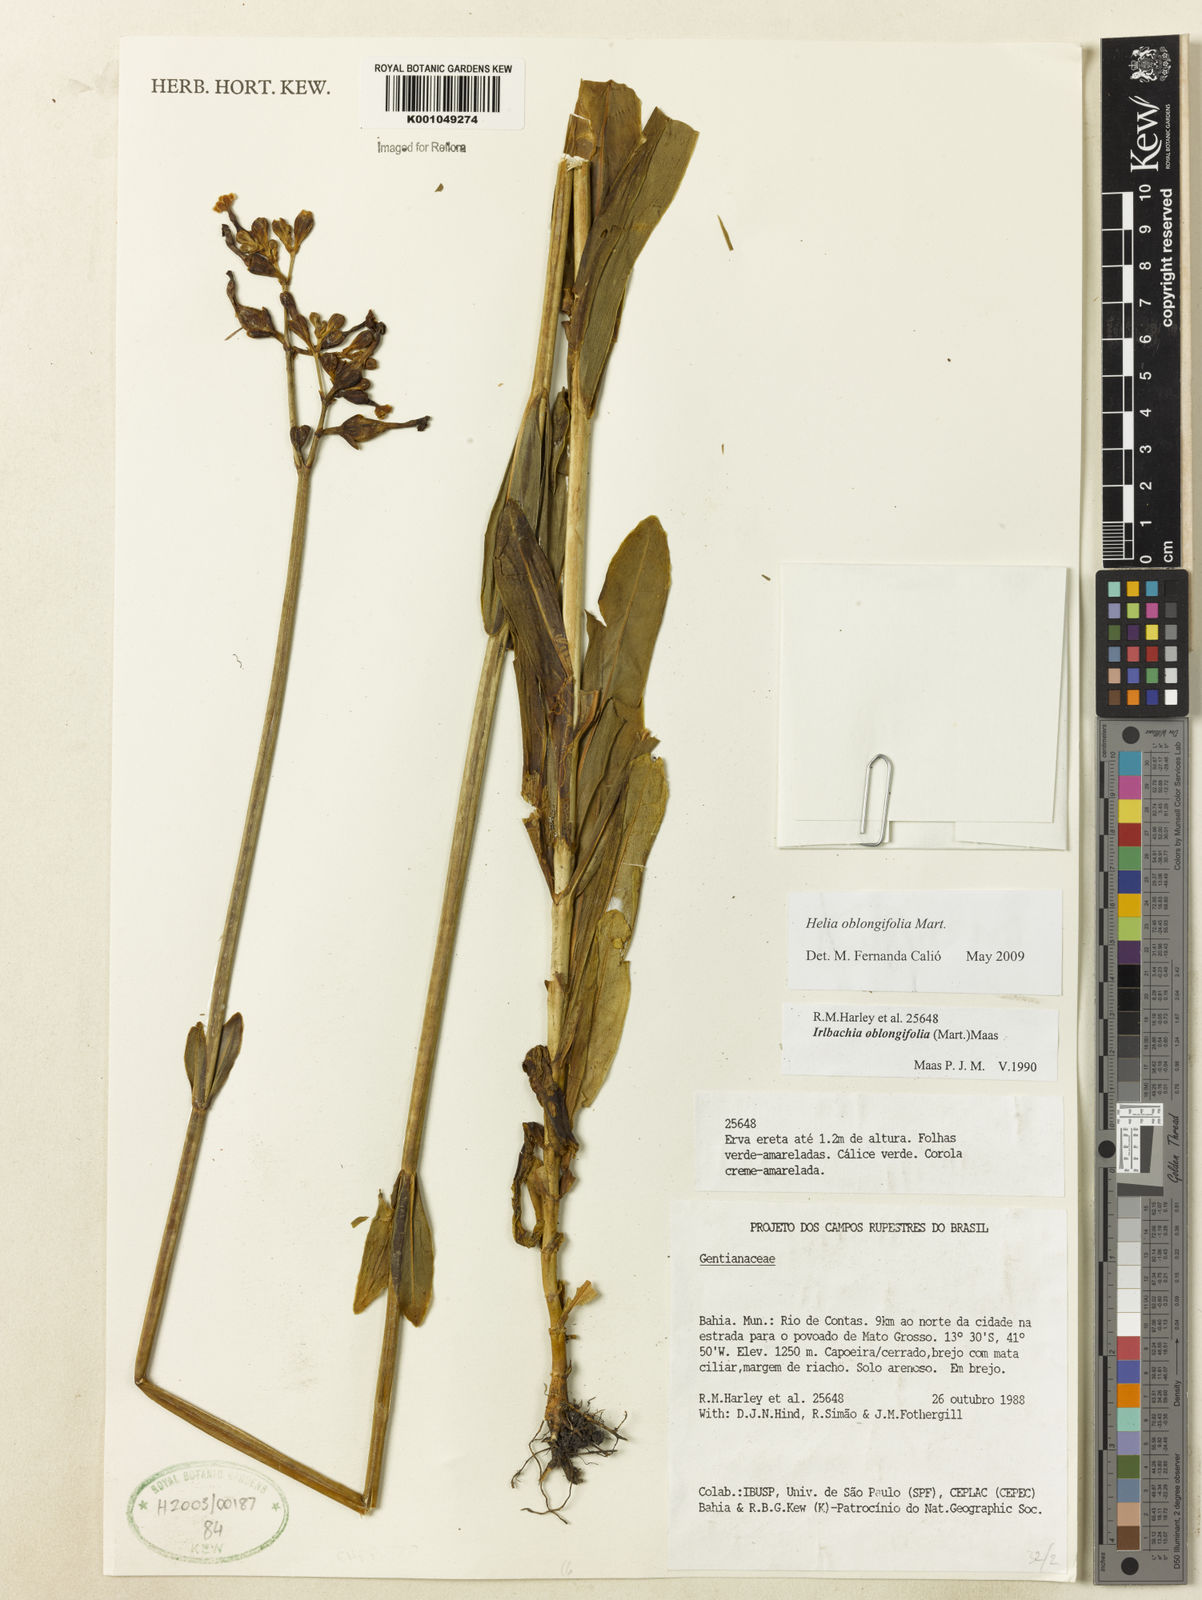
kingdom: Plantae
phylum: Tracheophyta
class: Magnoliopsida
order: Gentianales
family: Gentianaceae
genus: Irlbachia
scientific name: Irlbachia oblongifolia
